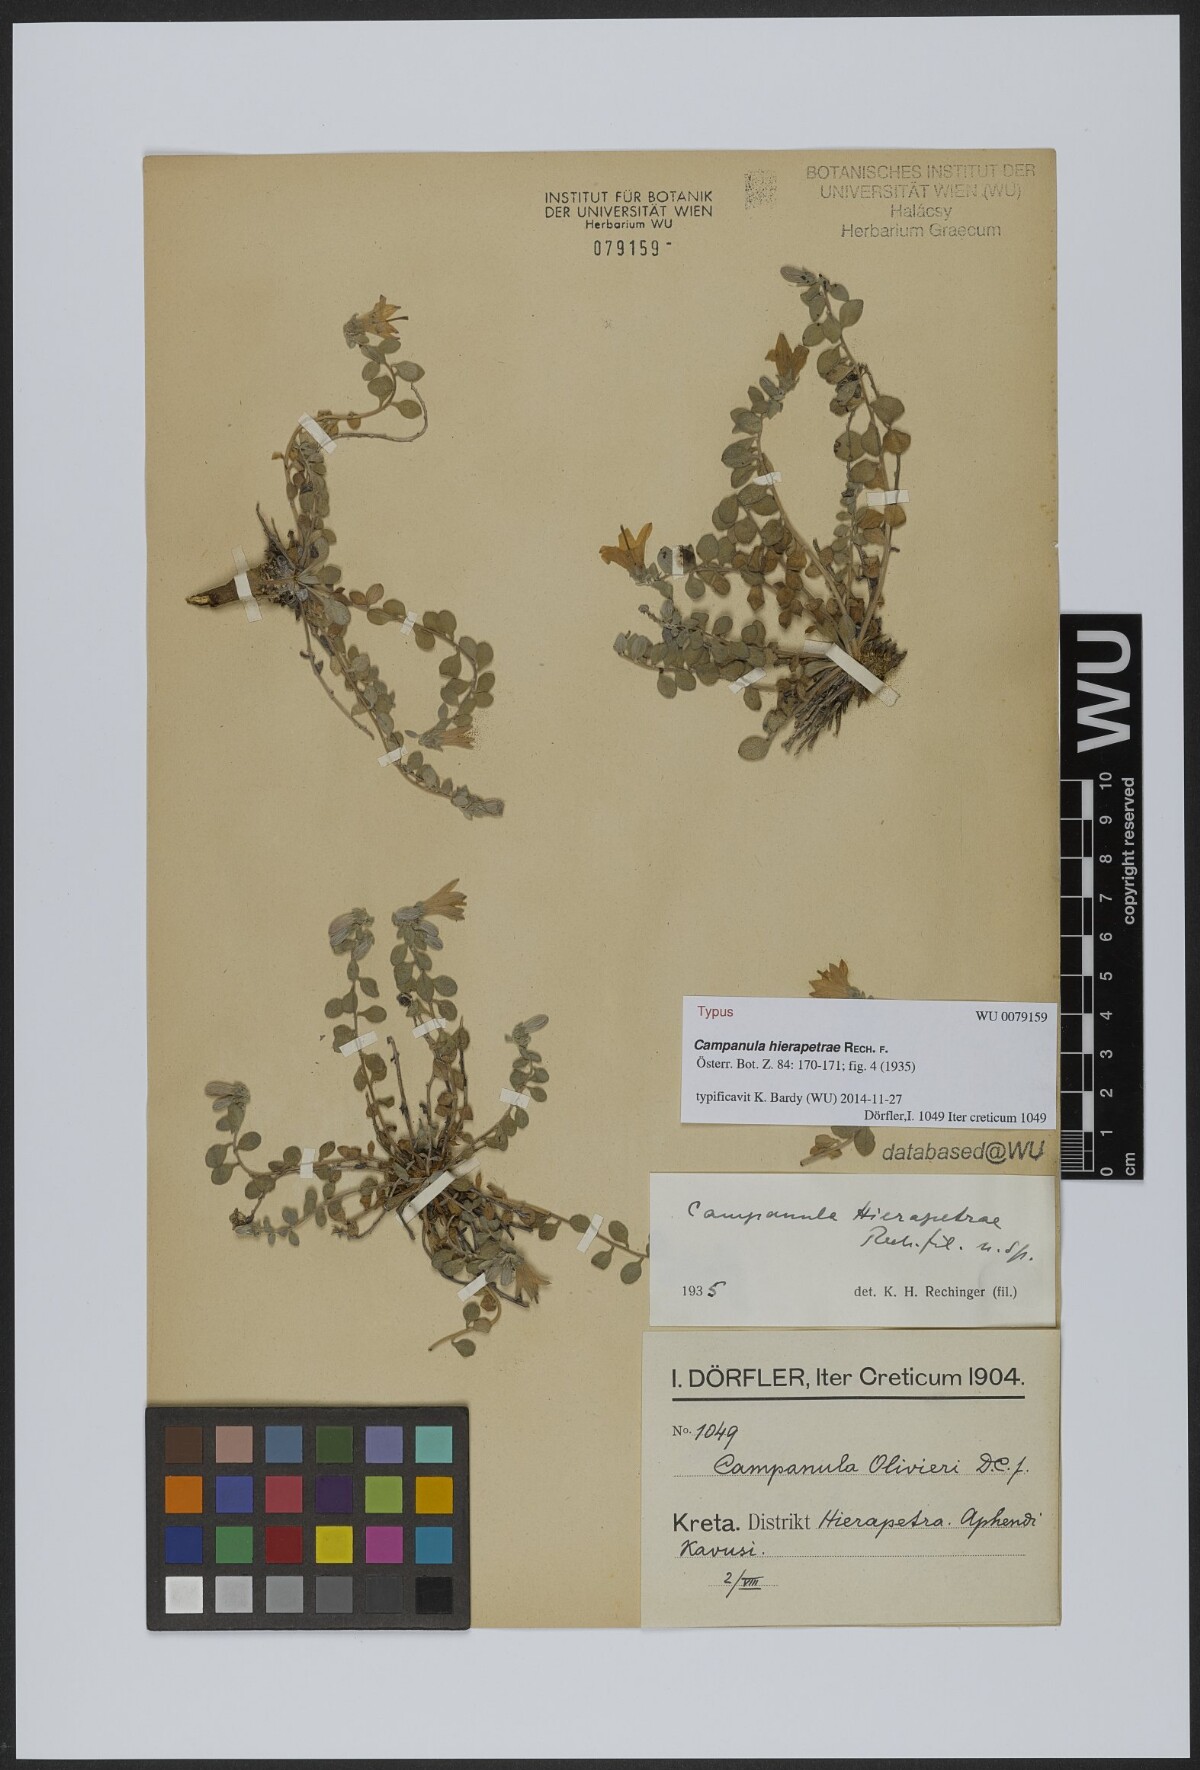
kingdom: Plantae
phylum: Tracheophyta
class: Magnoliopsida
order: Asterales
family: Campanulaceae
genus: Campanula
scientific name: Campanula hierapetrae
